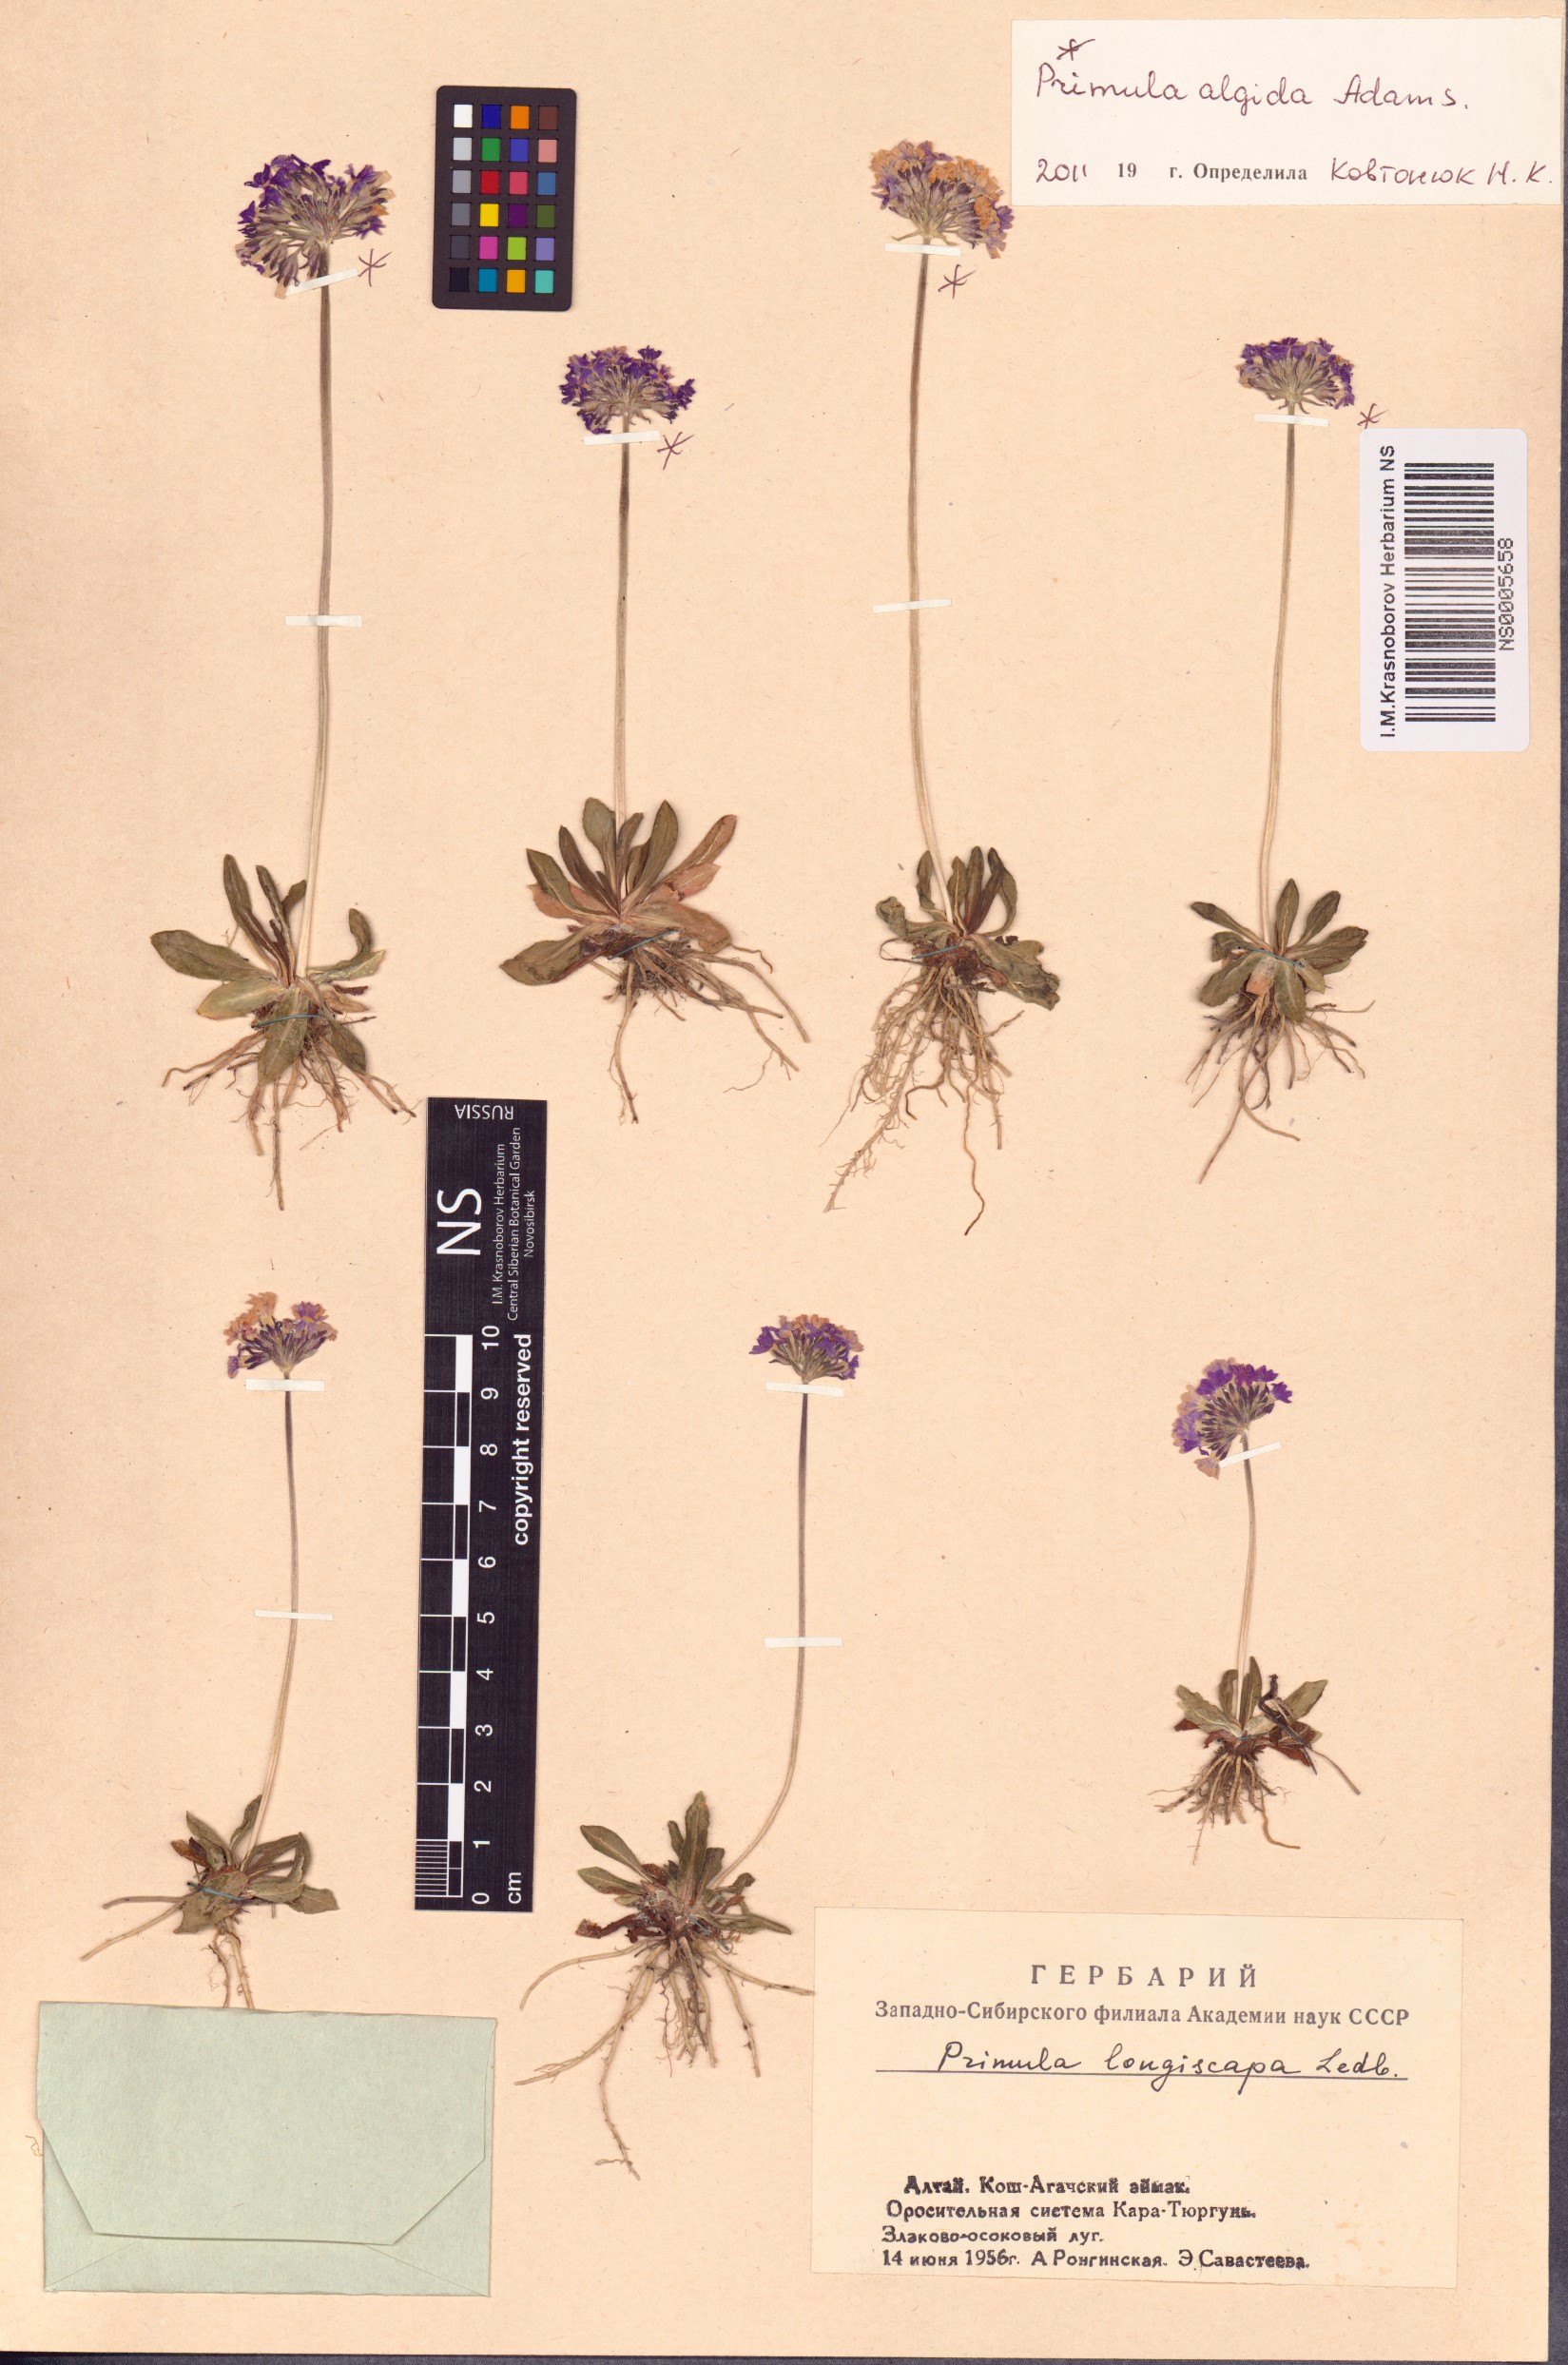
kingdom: Plantae
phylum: Tracheophyta
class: Magnoliopsida
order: Ericales
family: Primulaceae
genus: Primula
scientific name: Primula algida
